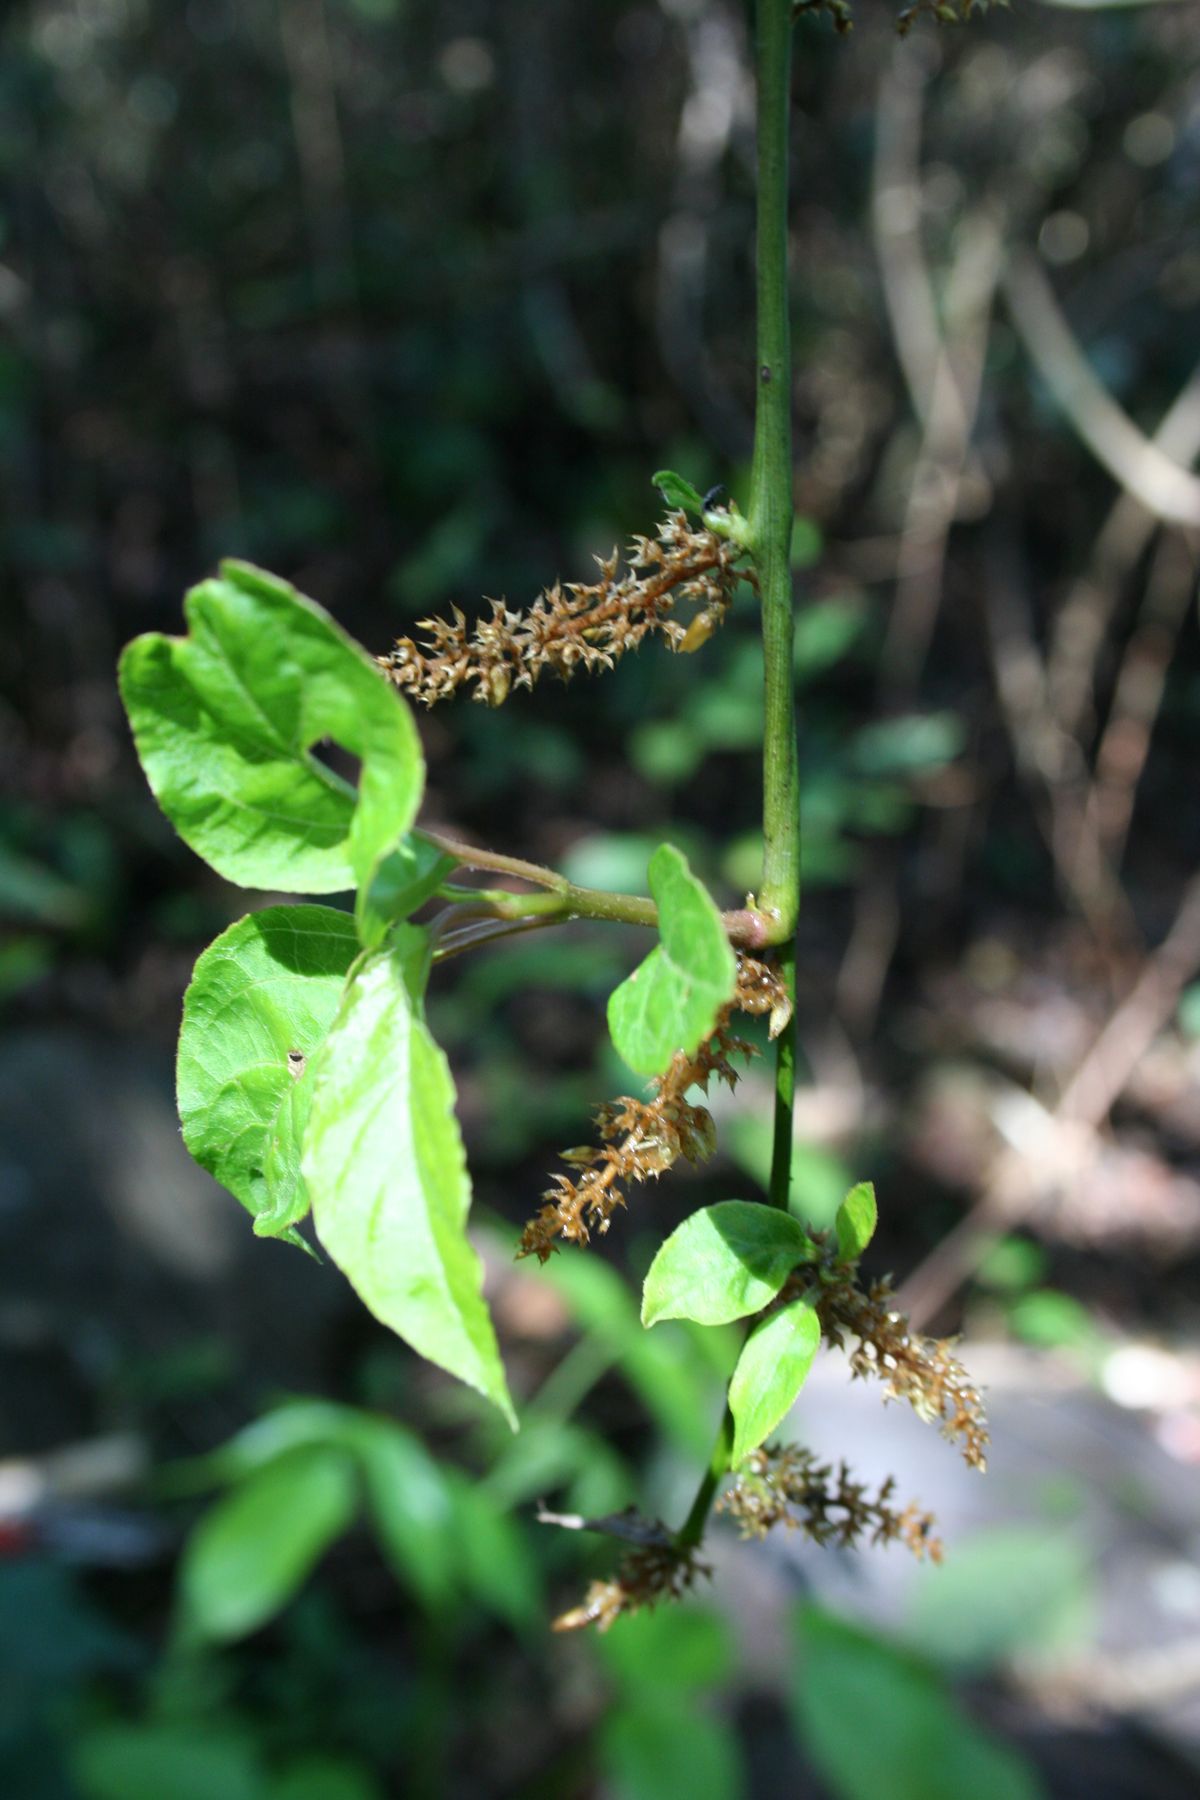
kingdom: Plantae
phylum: Tracheophyta
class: Magnoliopsida
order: Caryophyllales
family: Amaranthaceae
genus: Chamissoa
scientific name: Chamissoa altissima
